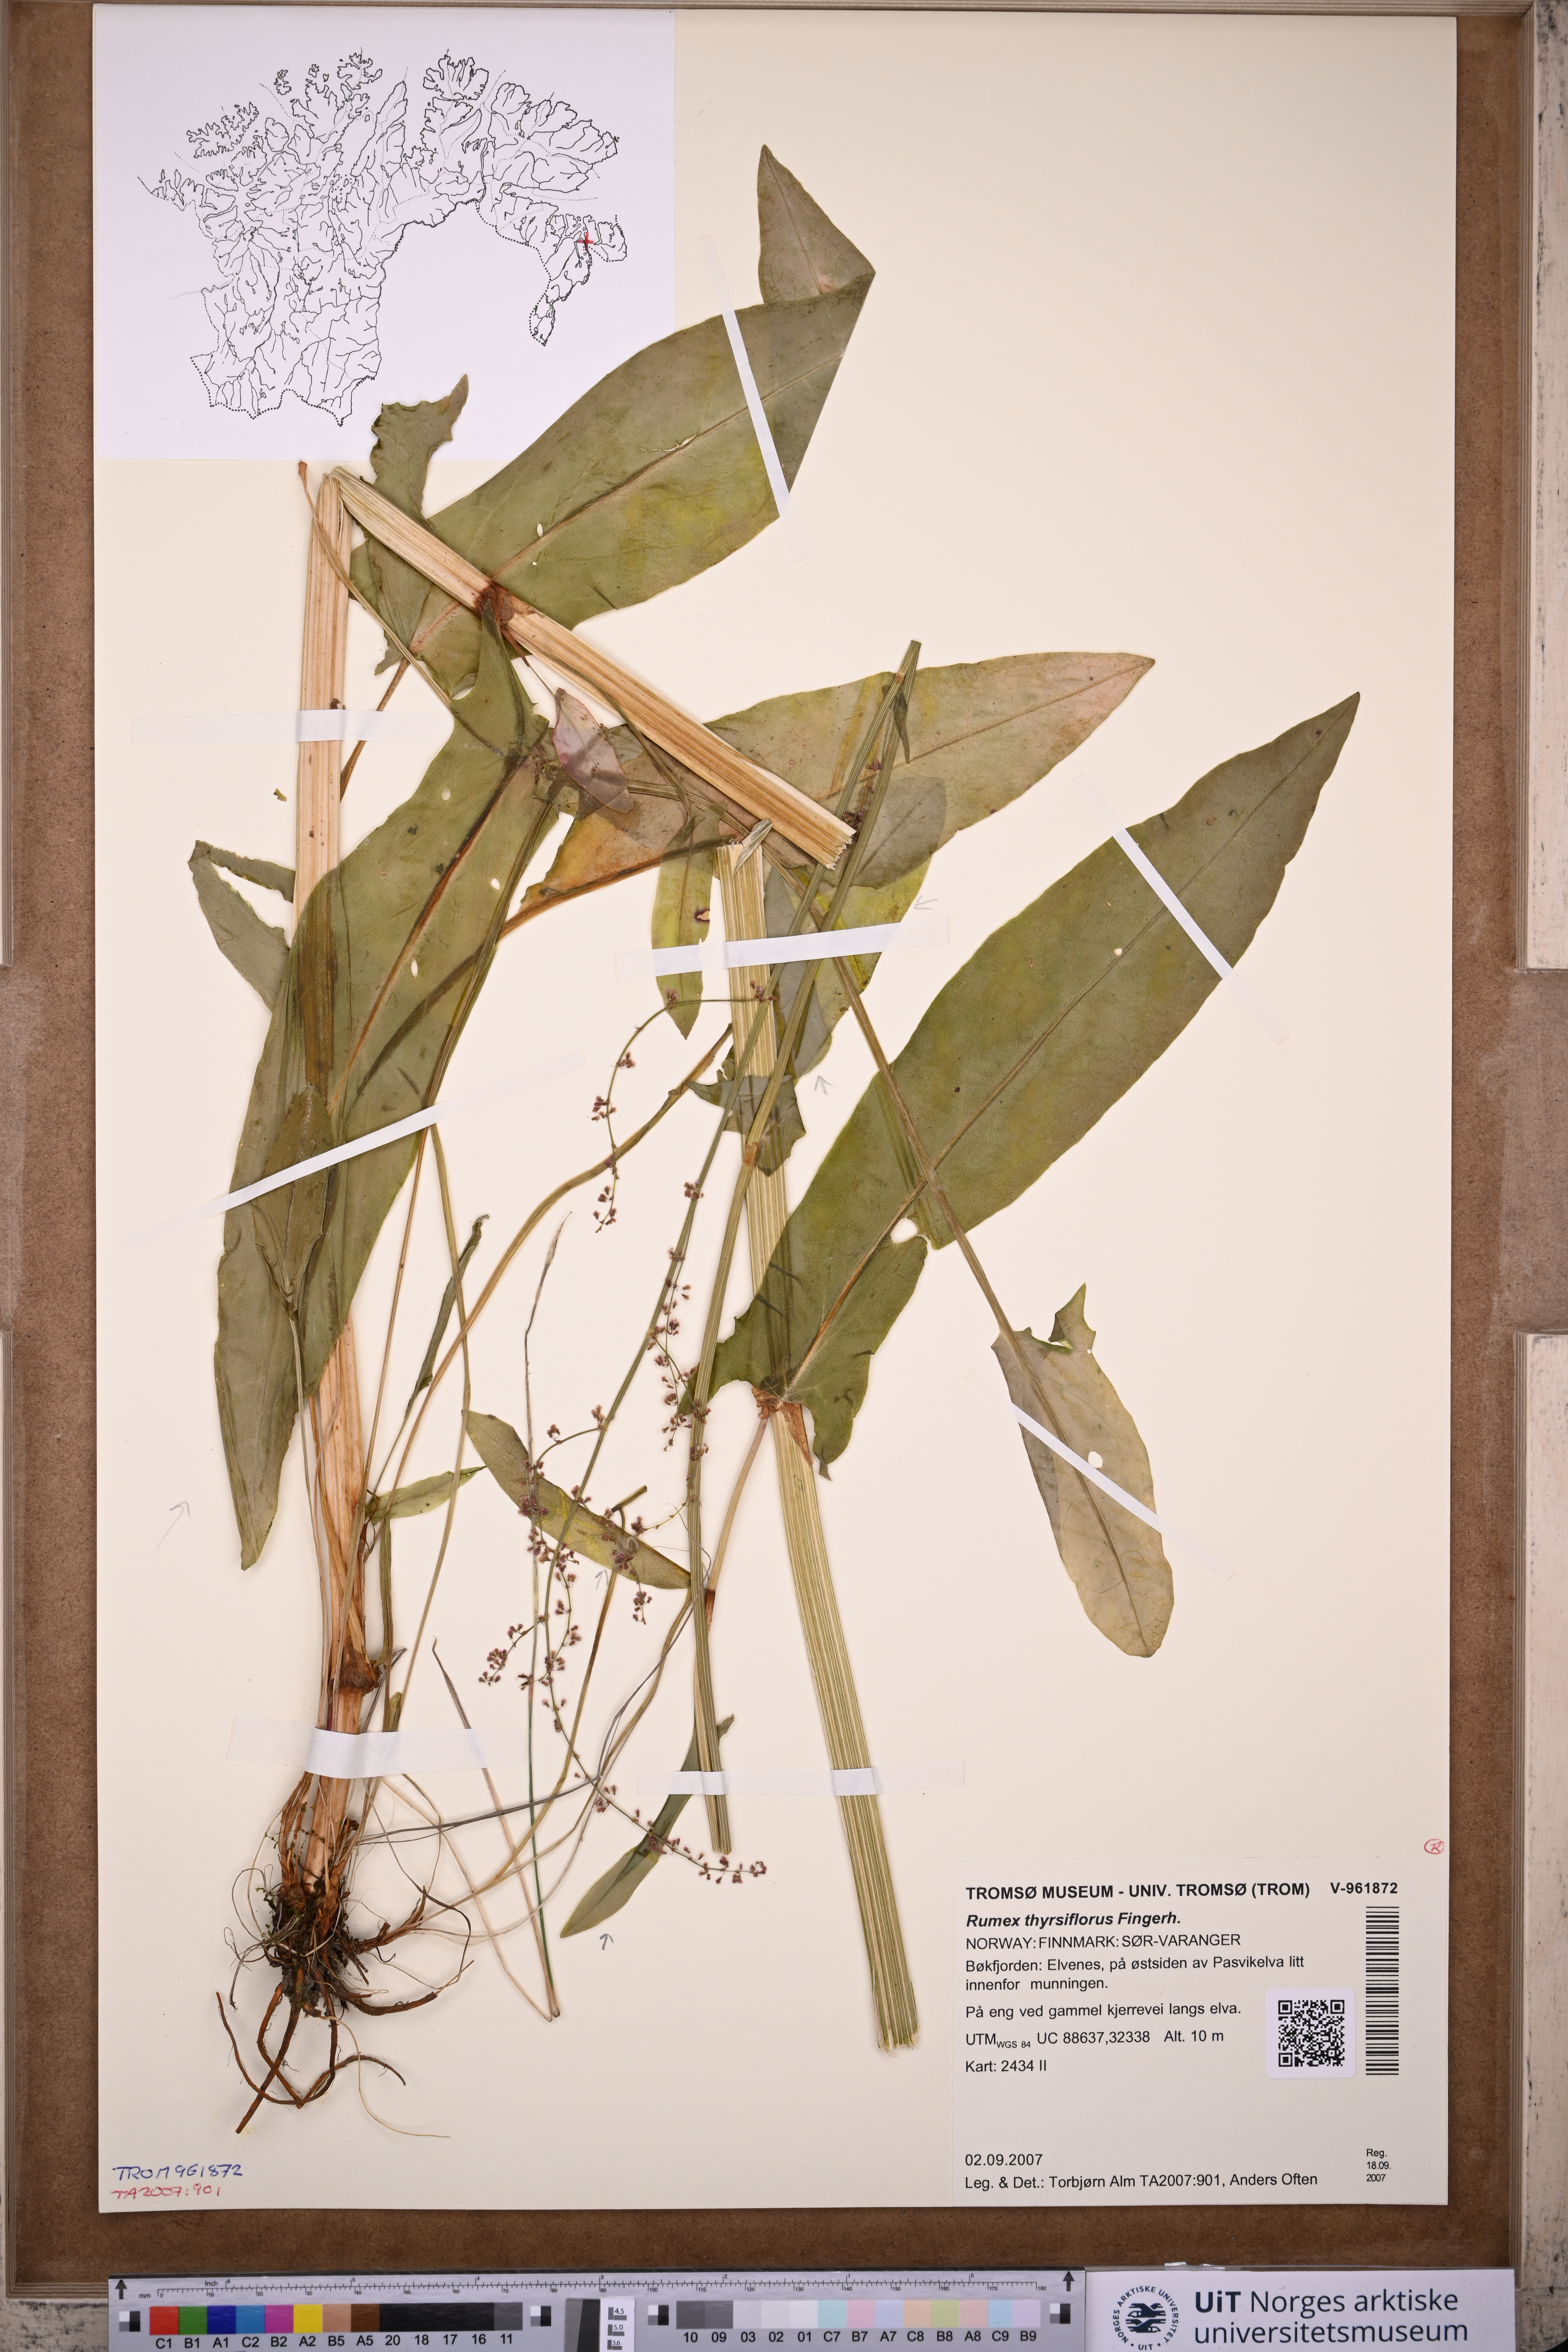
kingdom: Plantae
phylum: Tracheophyta
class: Magnoliopsida
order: Caryophyllales
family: Polygonaceae
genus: Rumex
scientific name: Rumex thyrsiflorus
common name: Garden sorrel
